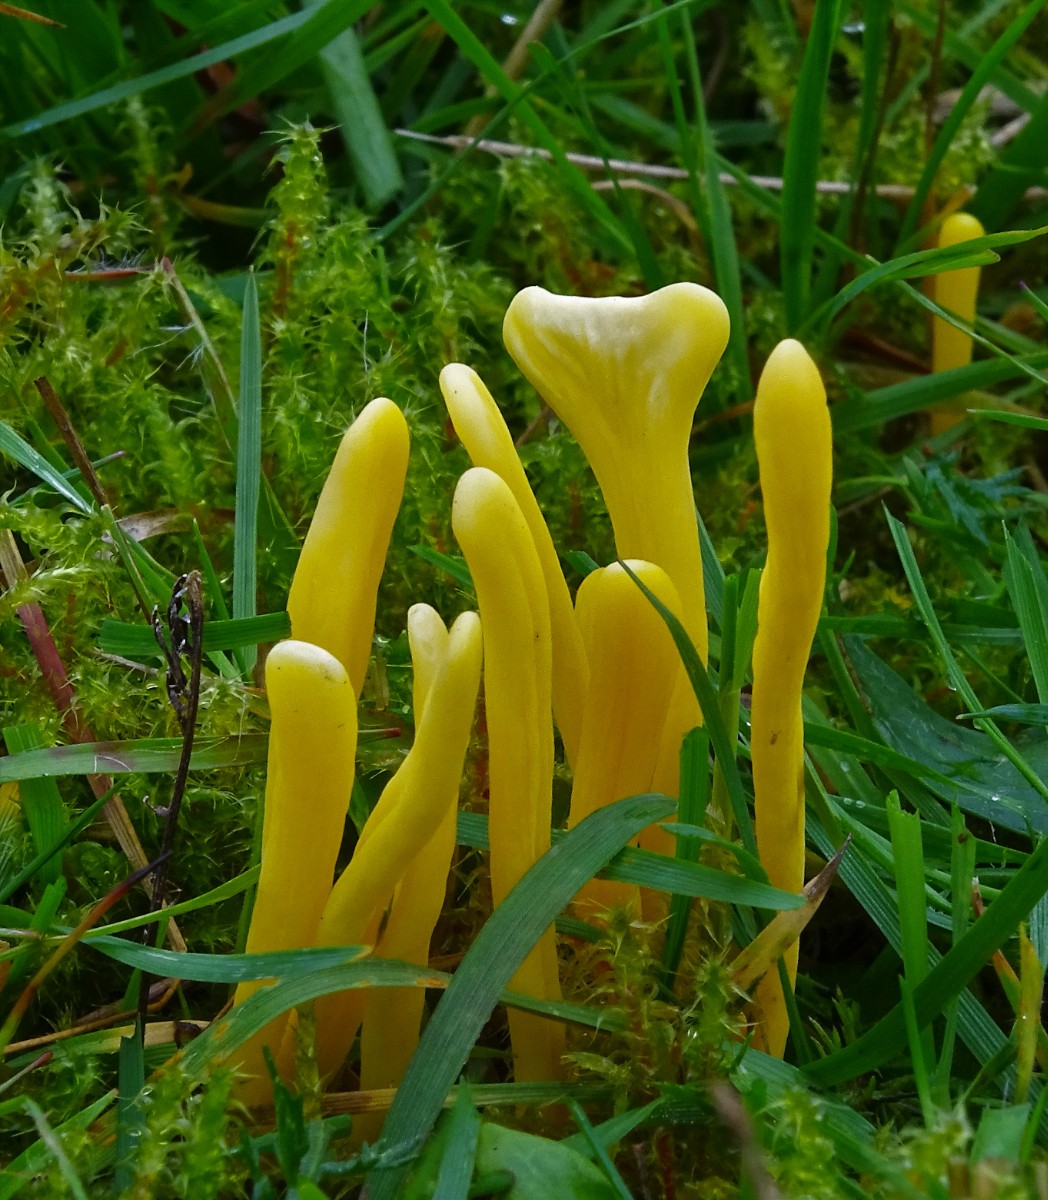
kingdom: Fungi
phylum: Basidiomycota
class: Agaricomycetes
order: Agaricales
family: Clavariaceae
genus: Clavulinopsis
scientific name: Clavulinopsis helvola
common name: orangegul køllesvamp
